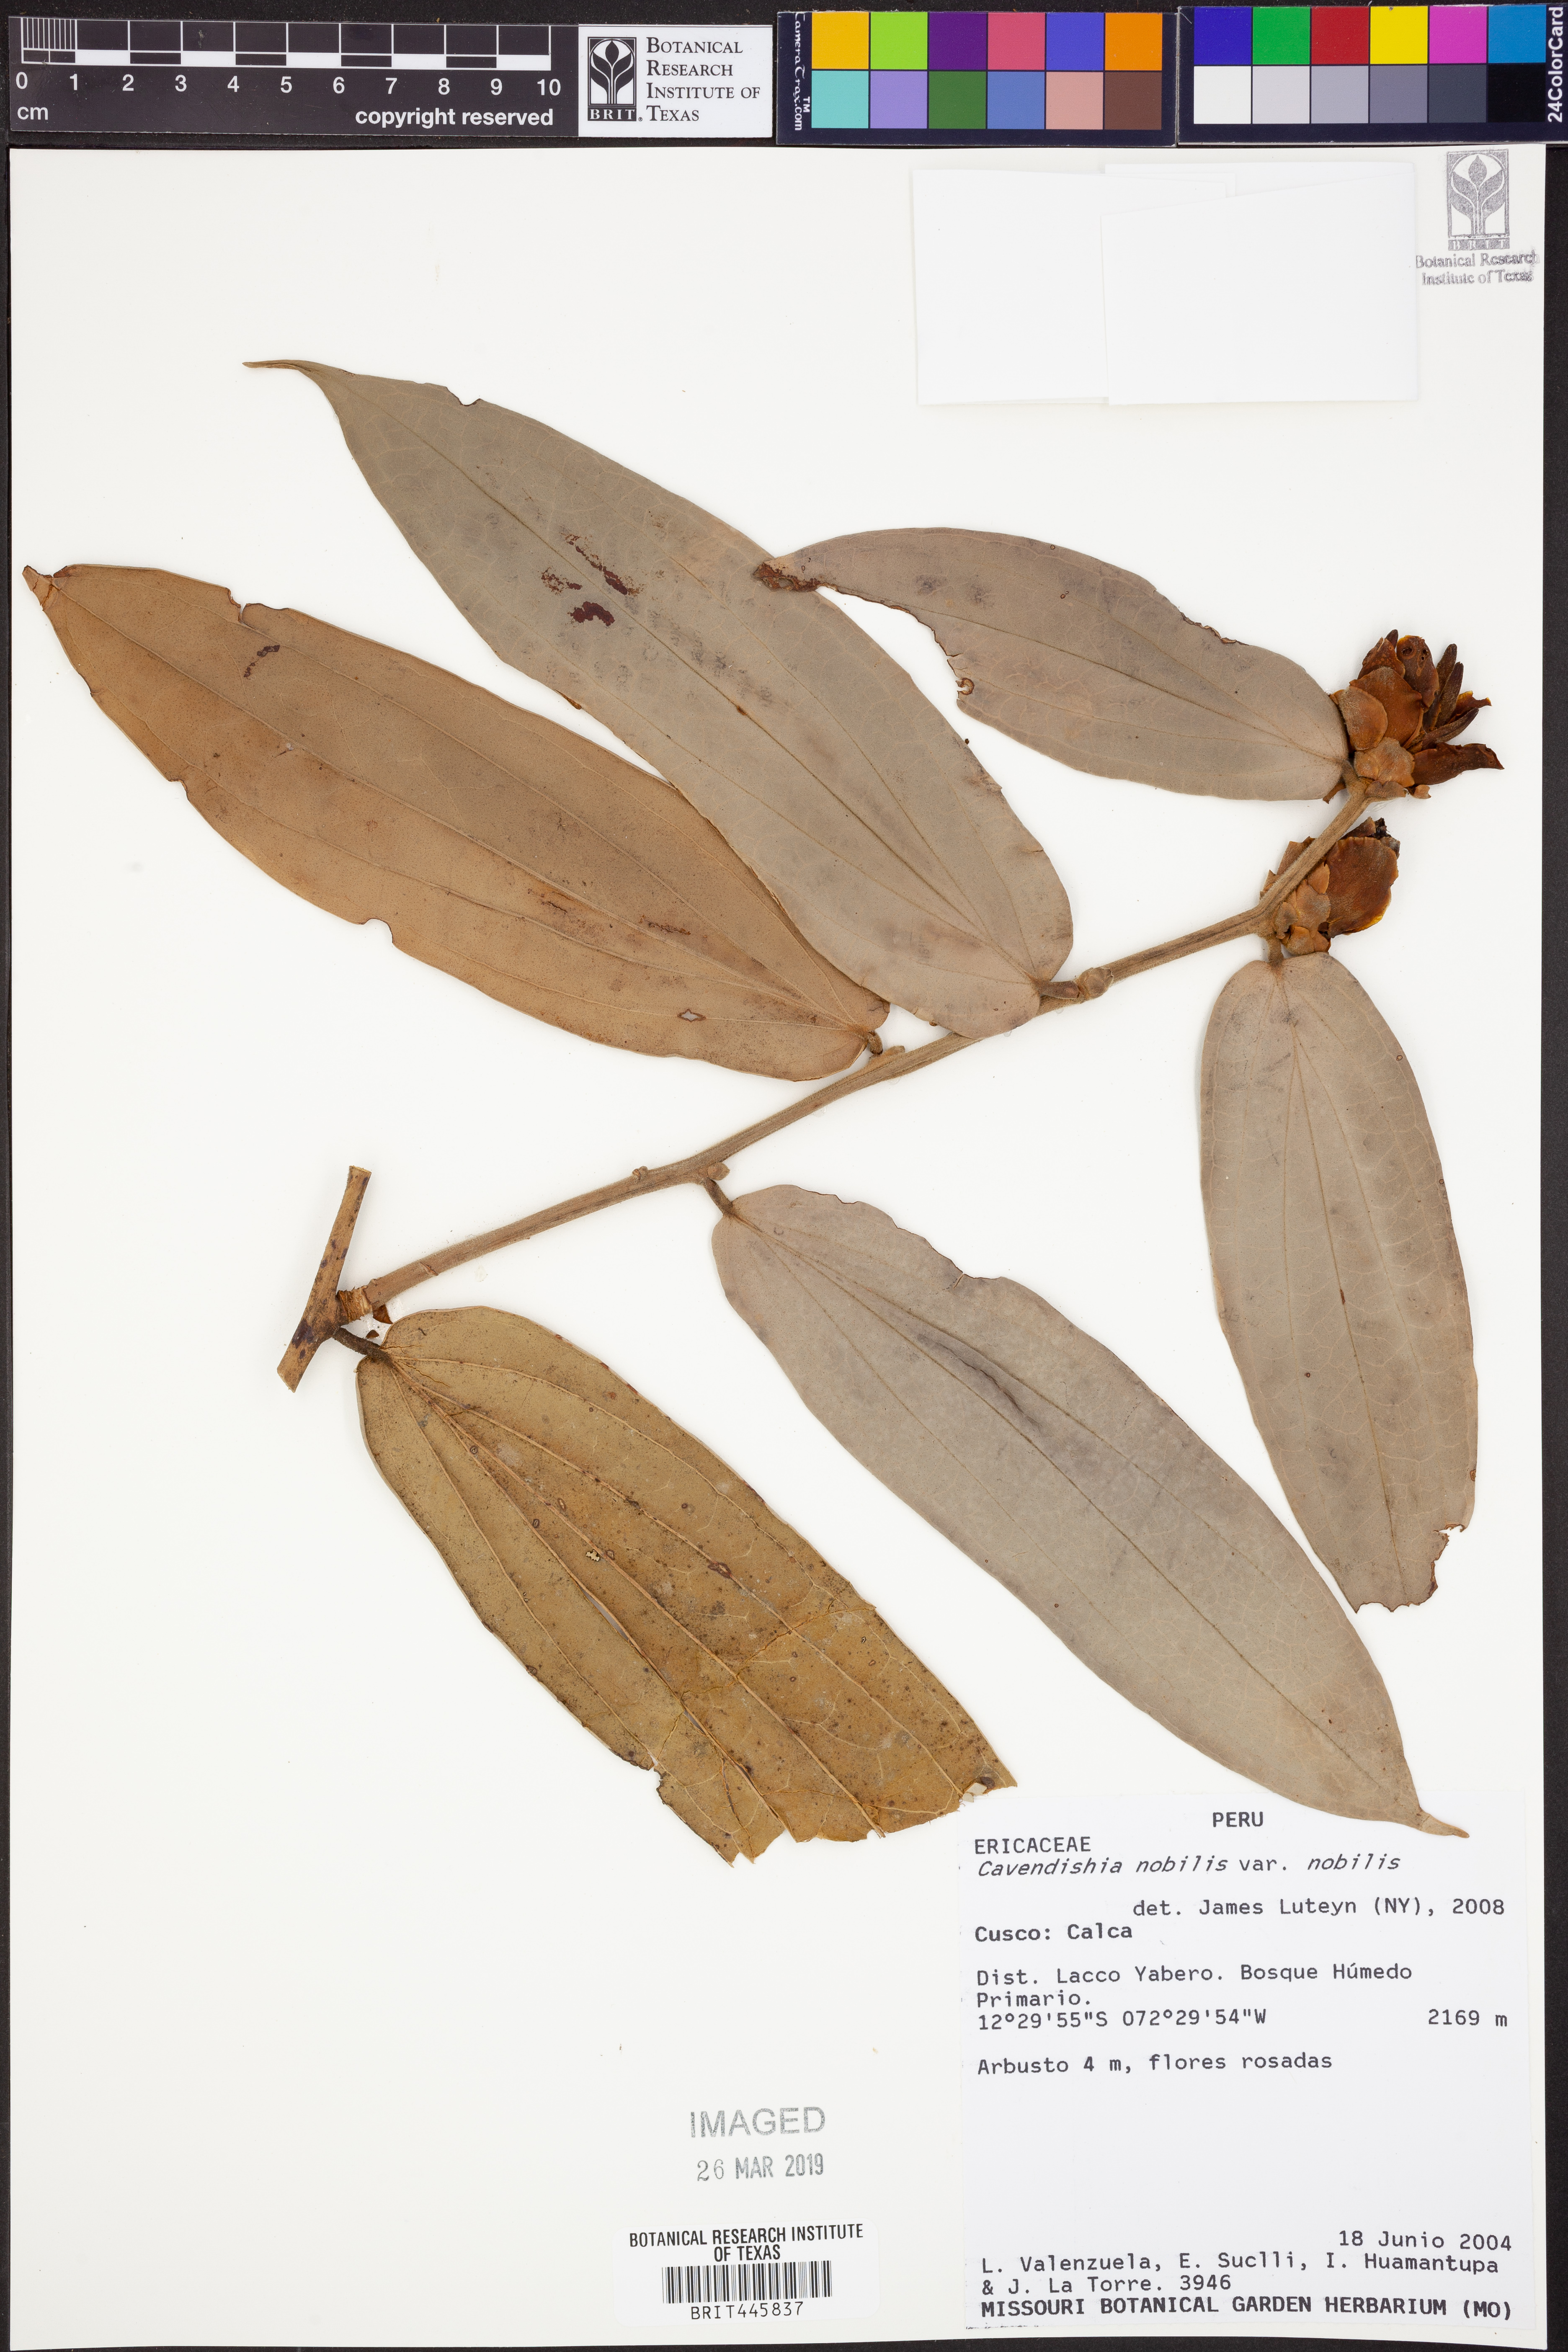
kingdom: Plantae
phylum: Tracheophyta
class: Magnoliopsida
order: Ericales
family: Ericaceae
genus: Cavendishia
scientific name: Cavendishia nobilis
